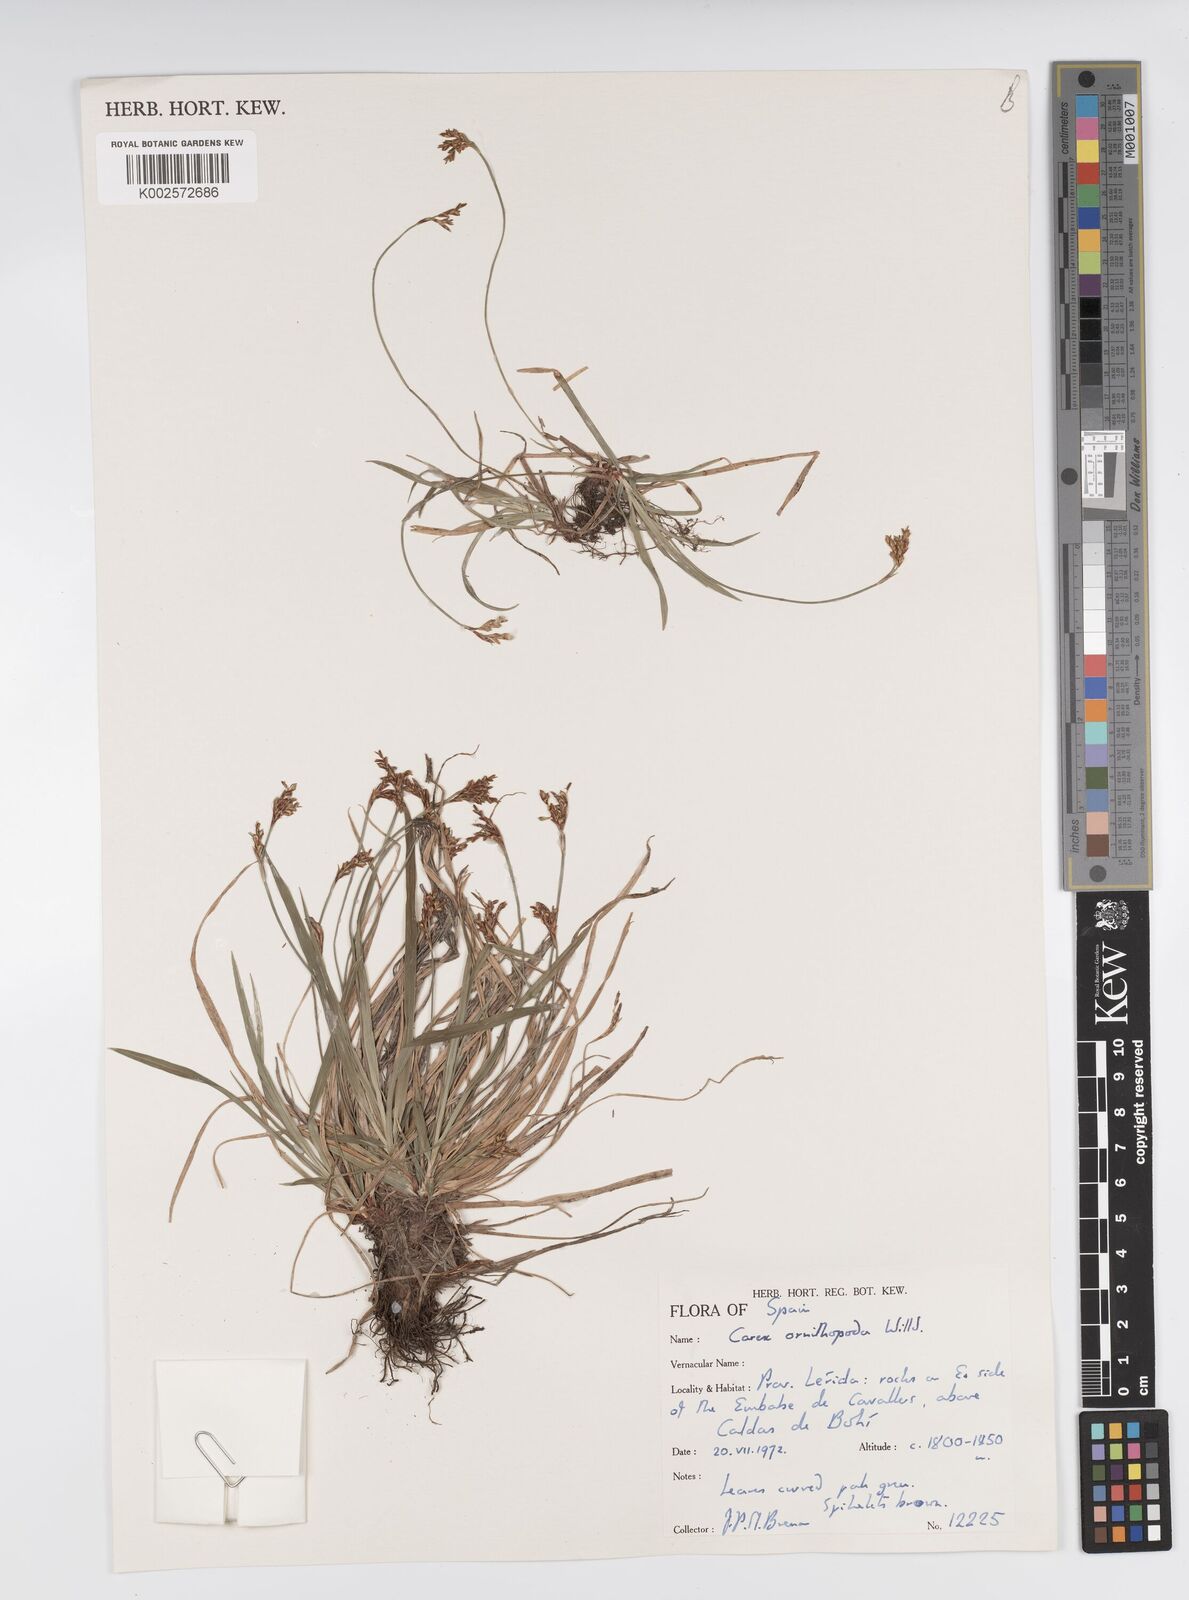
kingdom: Plantae
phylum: Tracheophyta
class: Liliopsida
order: Poales
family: Cyperaceae
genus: Carex
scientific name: Carex ornithopoda
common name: Bird's-foot sedge
